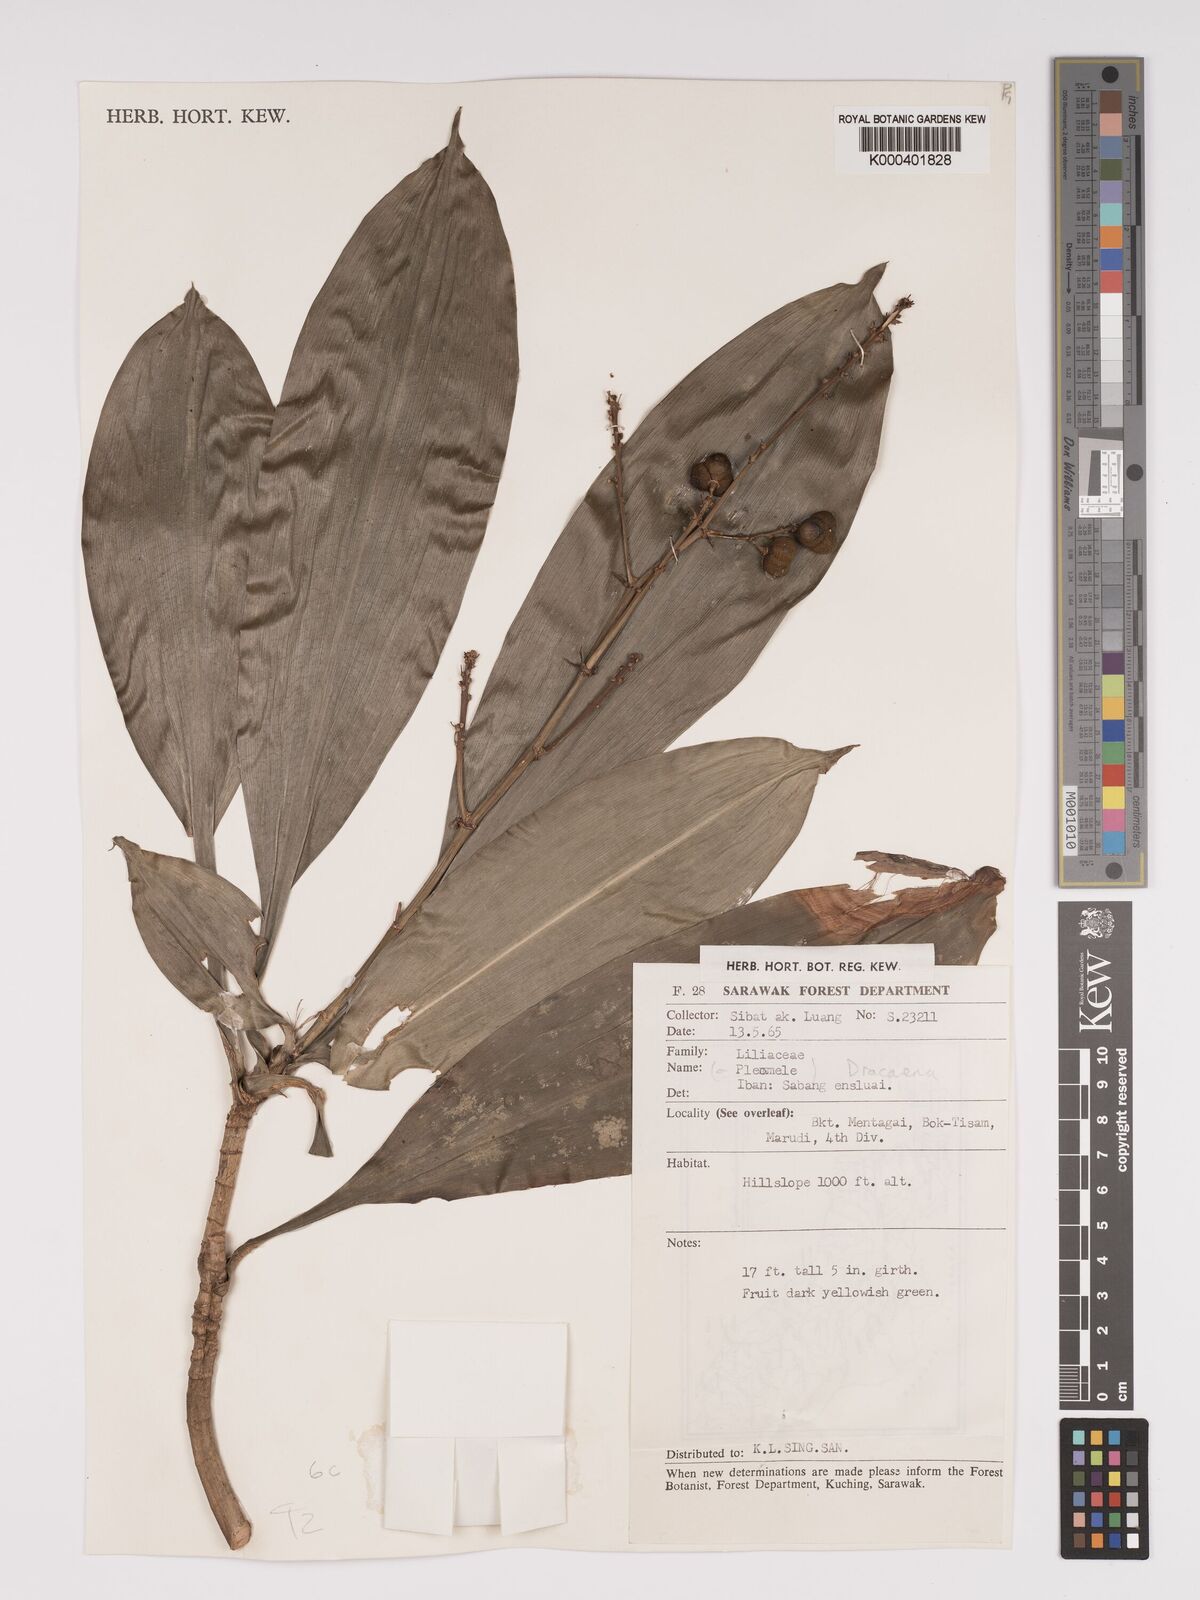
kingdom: Plantae
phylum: Tracheophyta
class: Liliopsida
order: Asparagales
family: Asparagaceae
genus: Dracaena
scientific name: Dracaena
